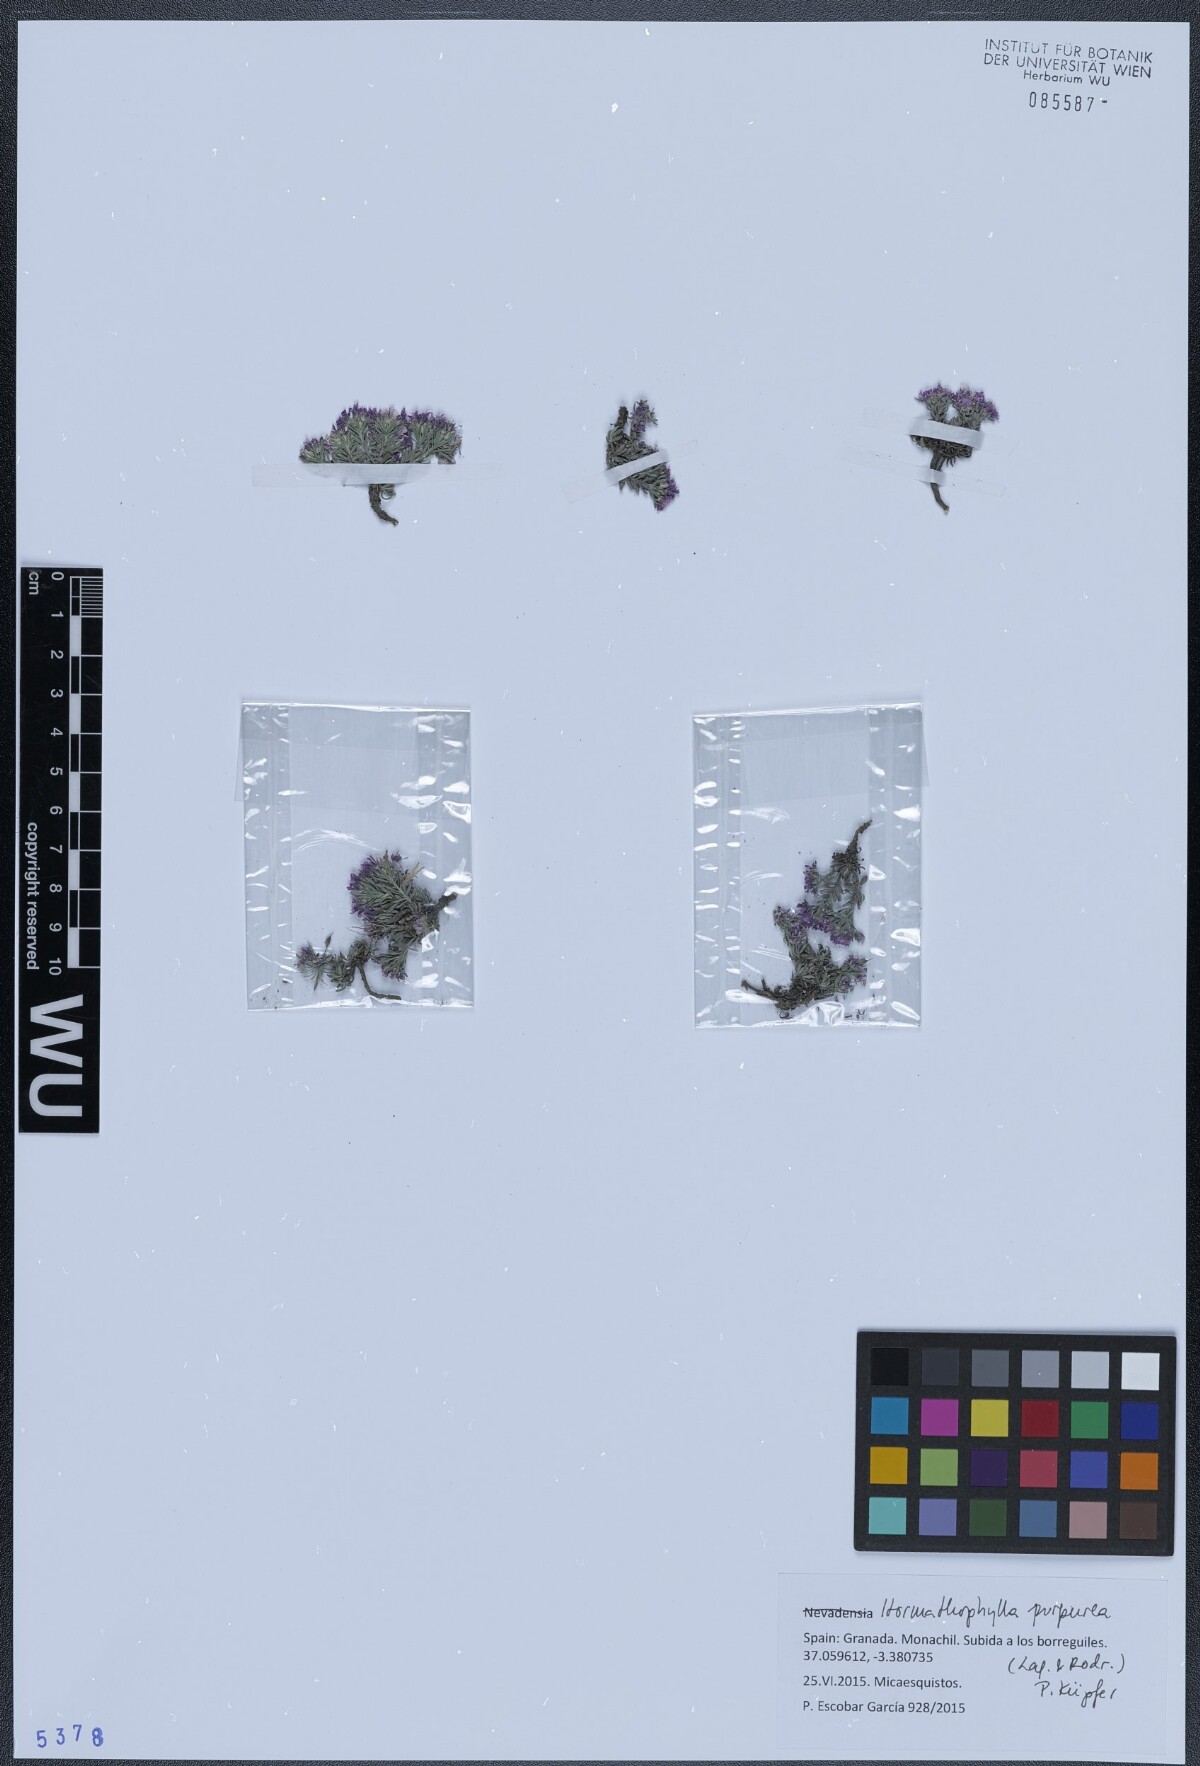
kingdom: Plantae
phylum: Tracheophyta
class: Magnoliopsida
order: Brassicales
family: Brassicaceae
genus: Hormathophylla
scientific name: Hormathophylla purpurea
